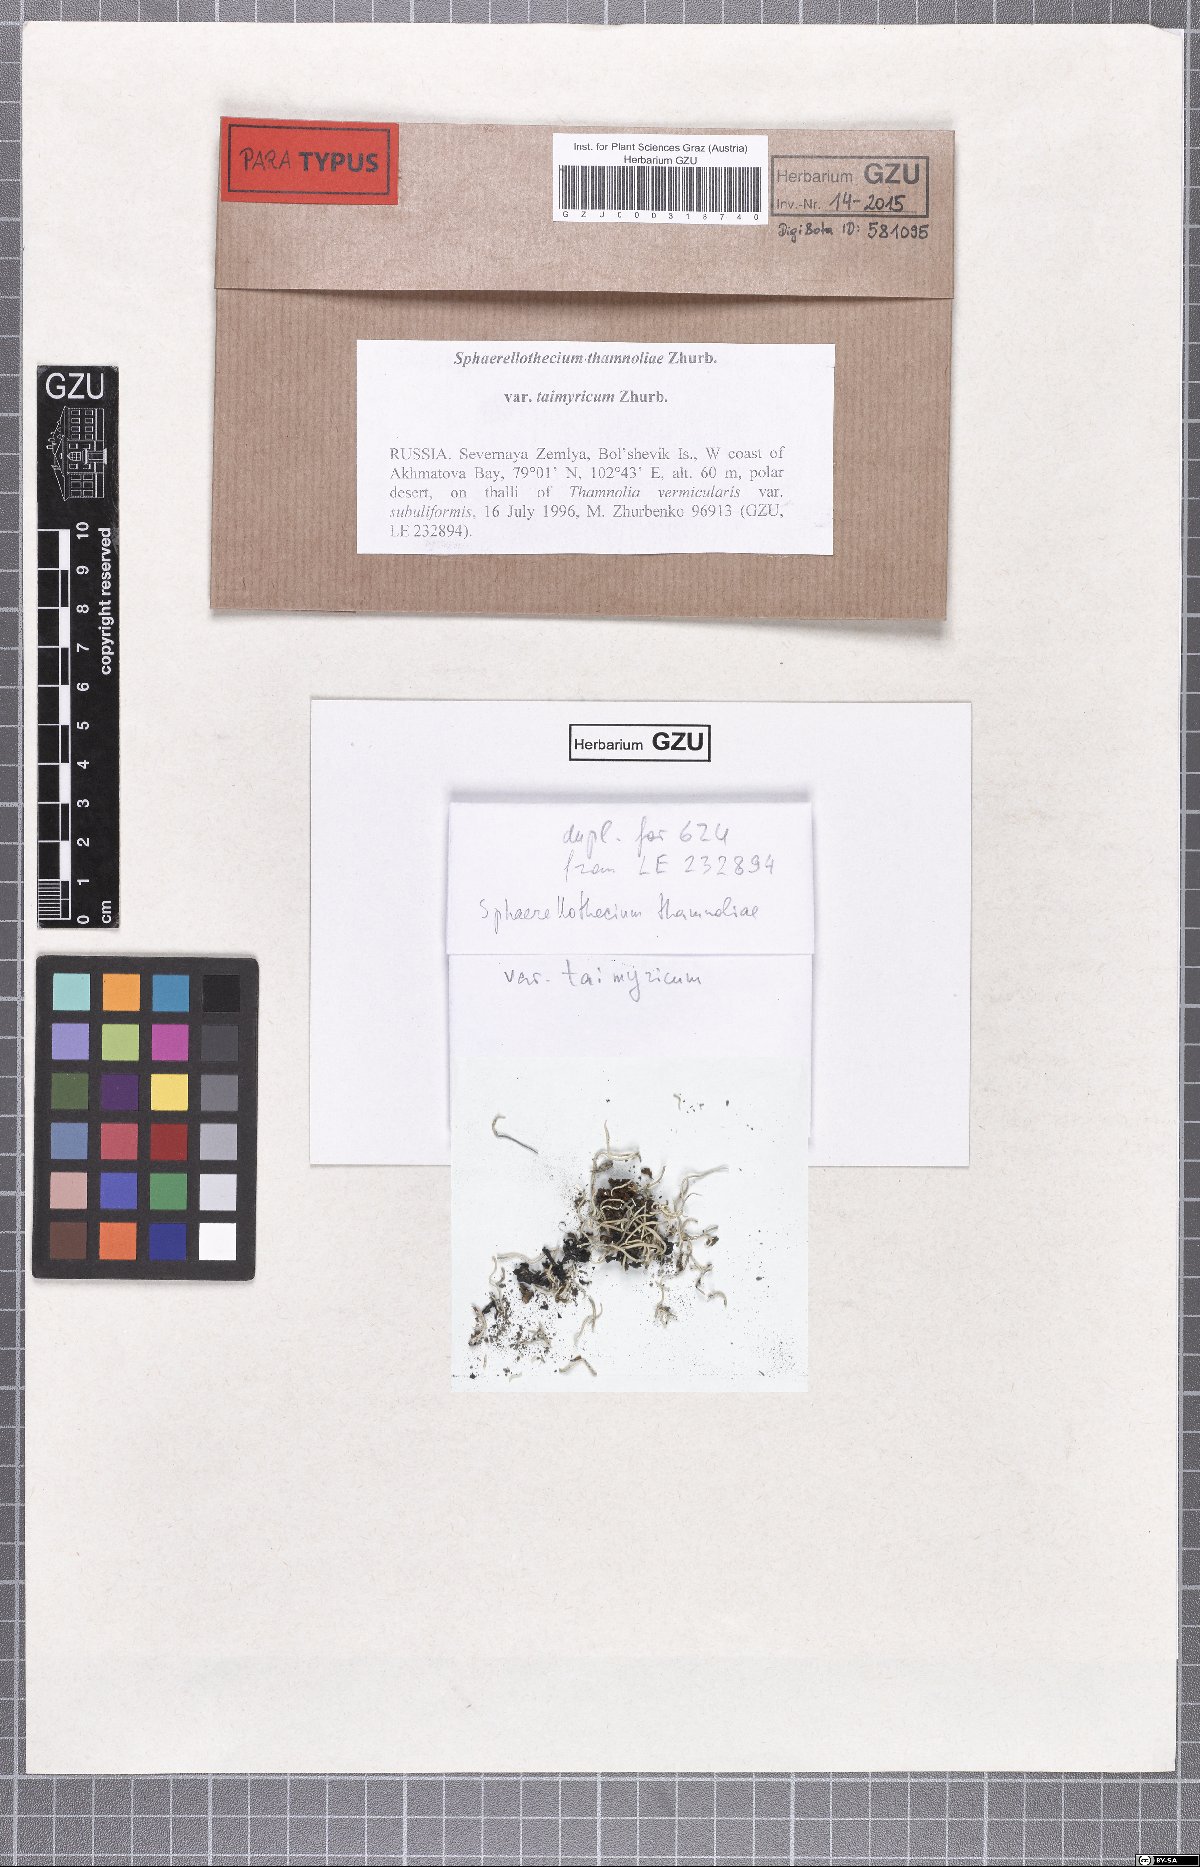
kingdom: Fungi
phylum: Ascomycota
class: Dothideomycetes
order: Mycosphaerellales
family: Mycosphaerellaceae
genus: Sphaerellothecium
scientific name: Sphaerellothecium taimyricum
